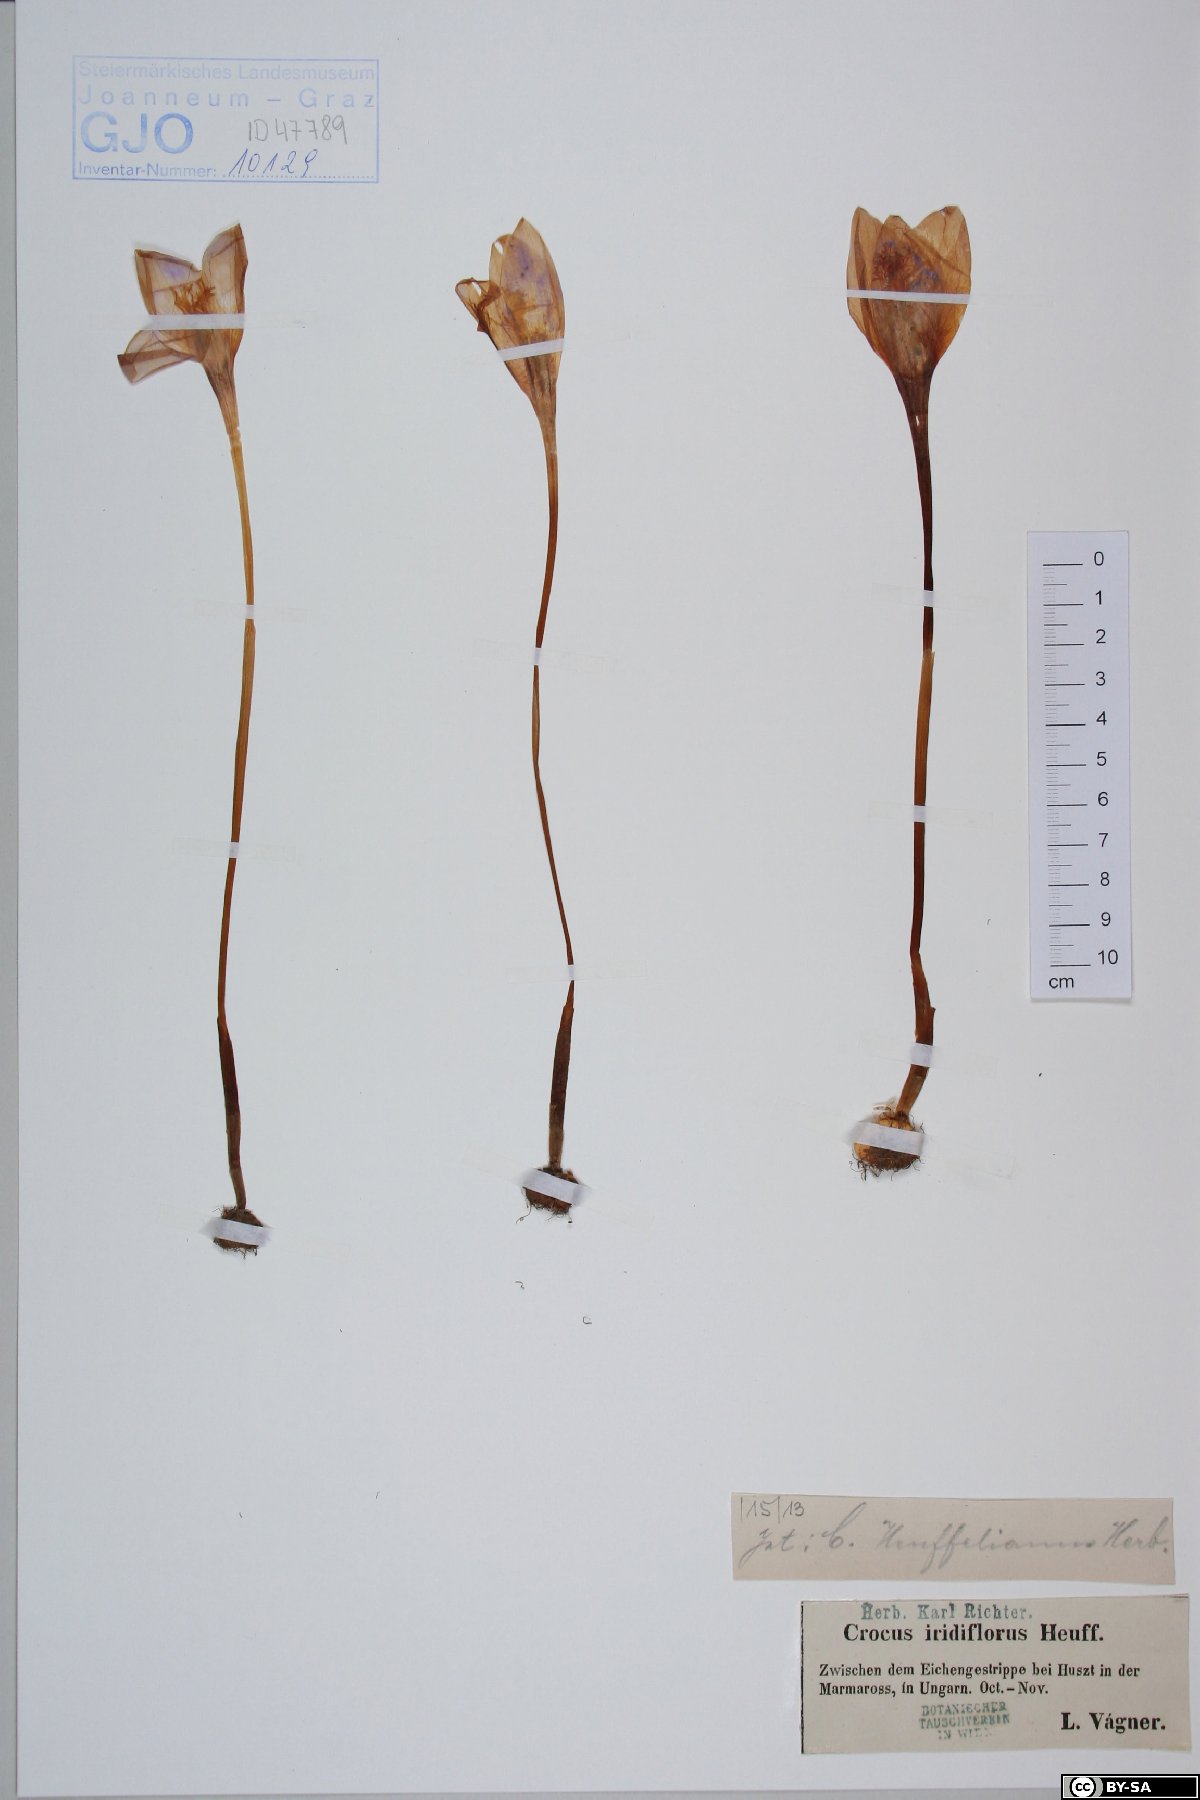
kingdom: Plantae
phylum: Tracheophyta
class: Liliopsida
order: Asparagales
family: Iridaceae
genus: Crocus
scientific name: Crocus banaticus
